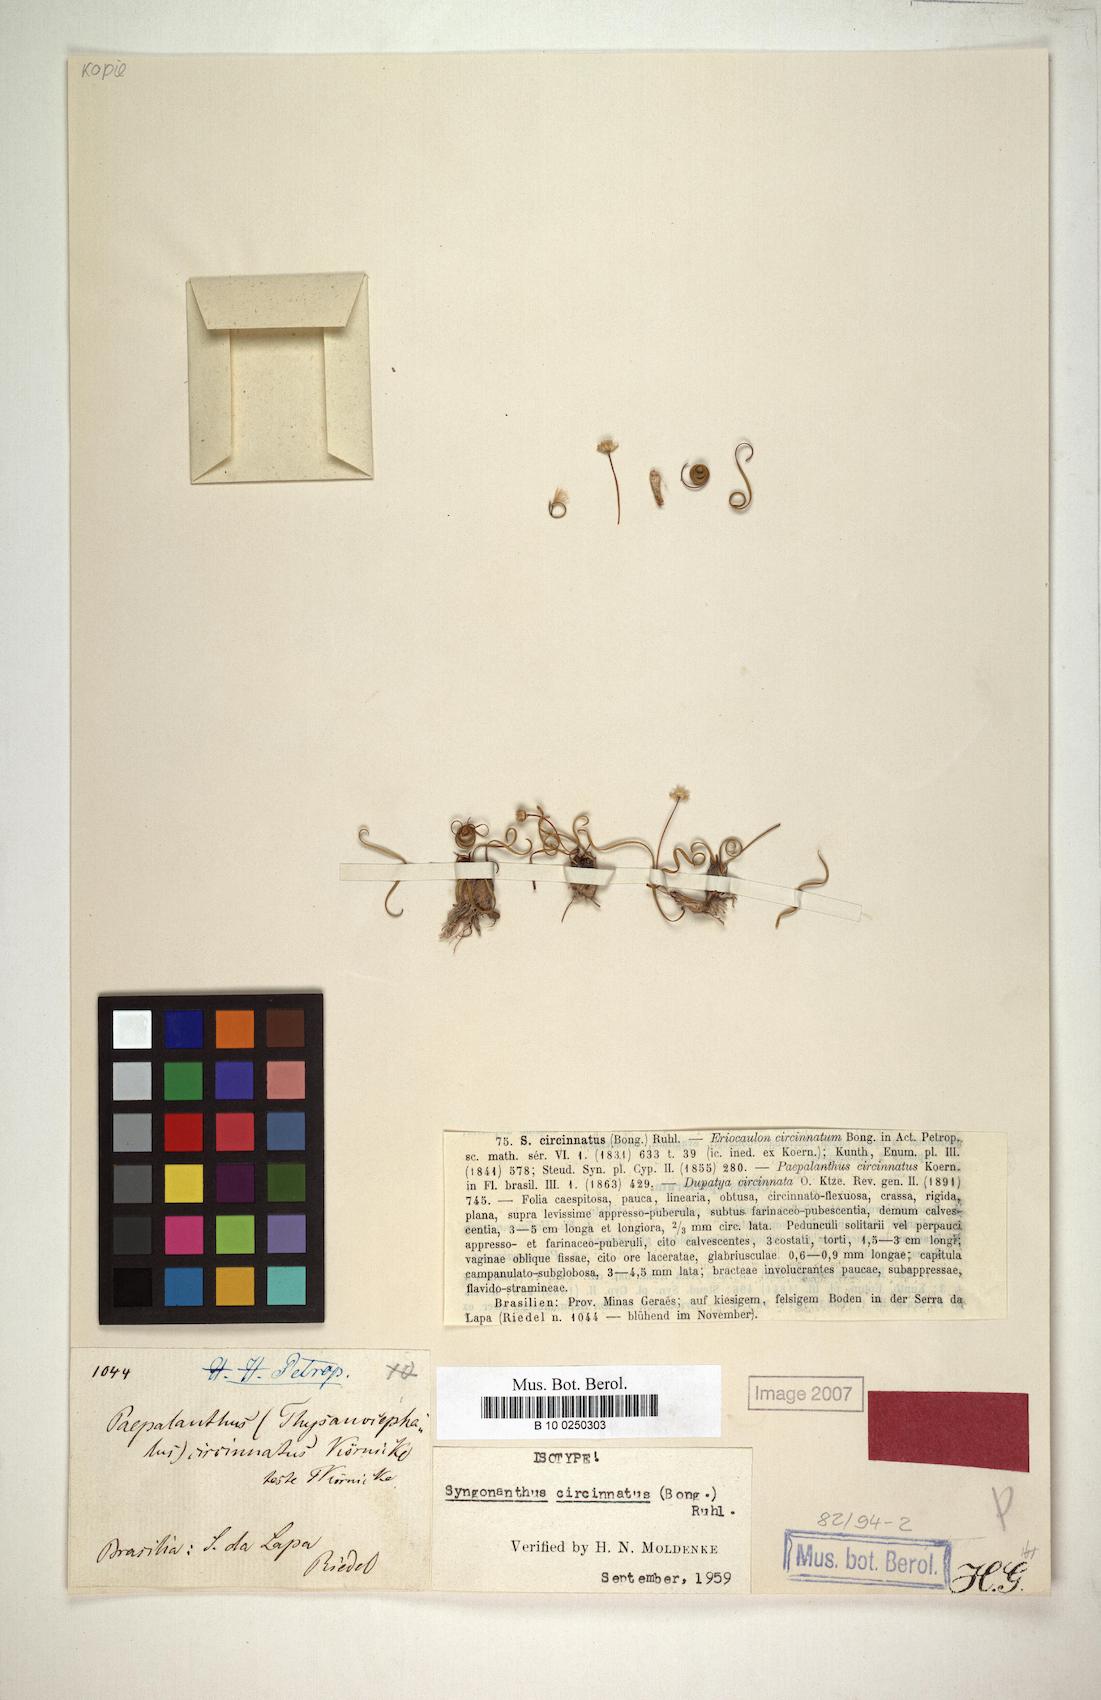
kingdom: Plantae
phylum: Tracheophyta
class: Liliopsida
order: Poales
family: Eriocaulaceae
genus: Comanthera
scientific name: Comanthera circinnata
